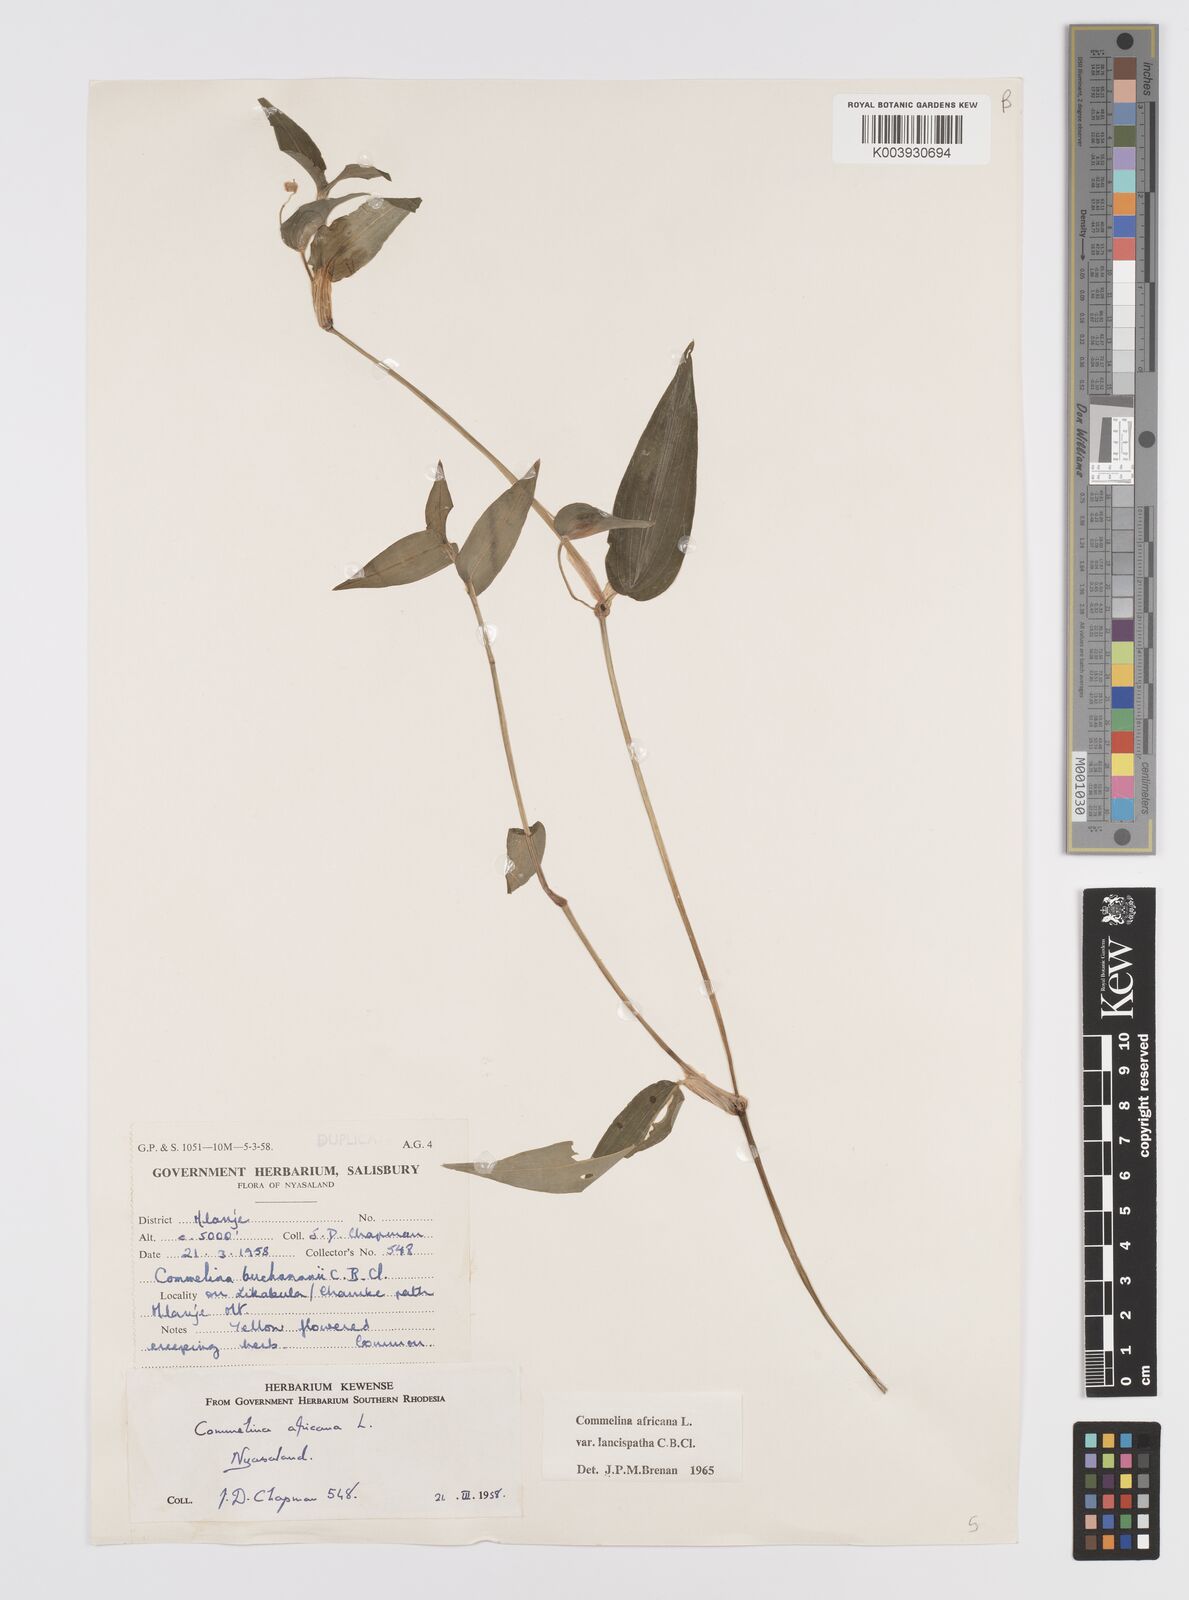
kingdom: Plantae
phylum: Tracheophyta
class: Liliopsida
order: Commelinales
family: Commelinaceae
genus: Commelina
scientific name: Commelina africana
